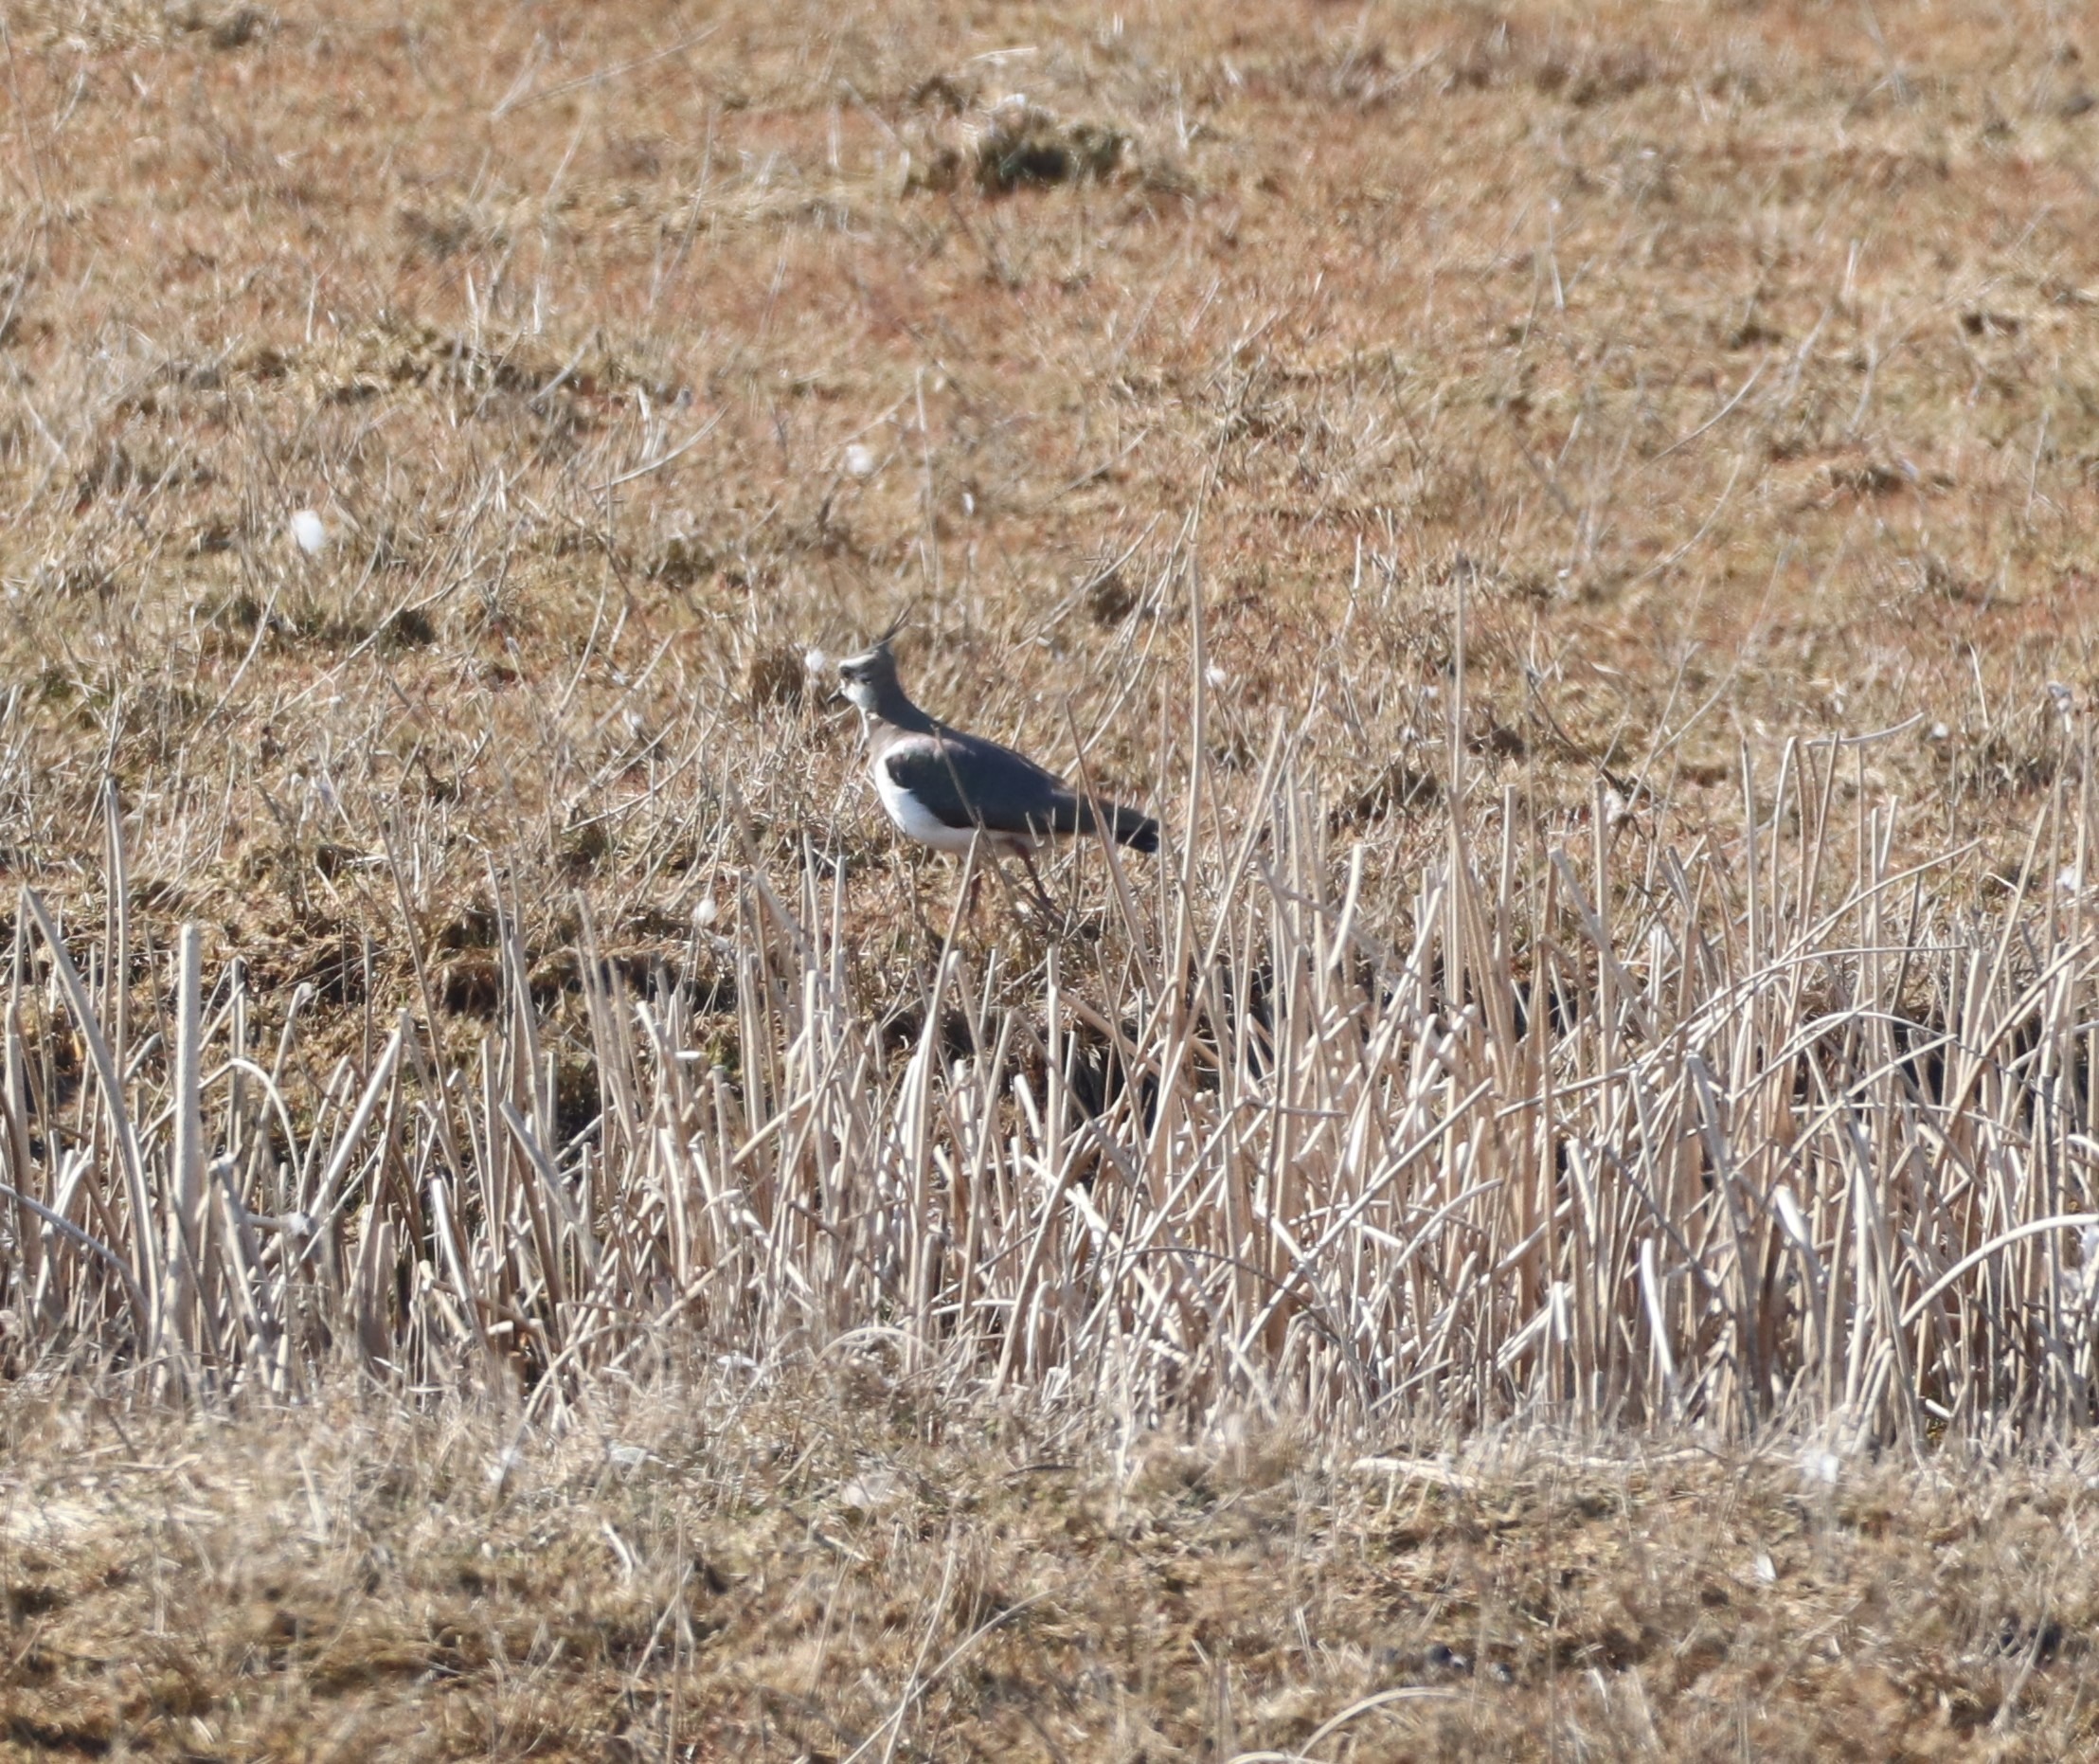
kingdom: Animalia
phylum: Chordata
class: Aves
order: Charadriiformes
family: Charadriidae
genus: Vanellus
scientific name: Vanellus vanellus
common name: Vibe
